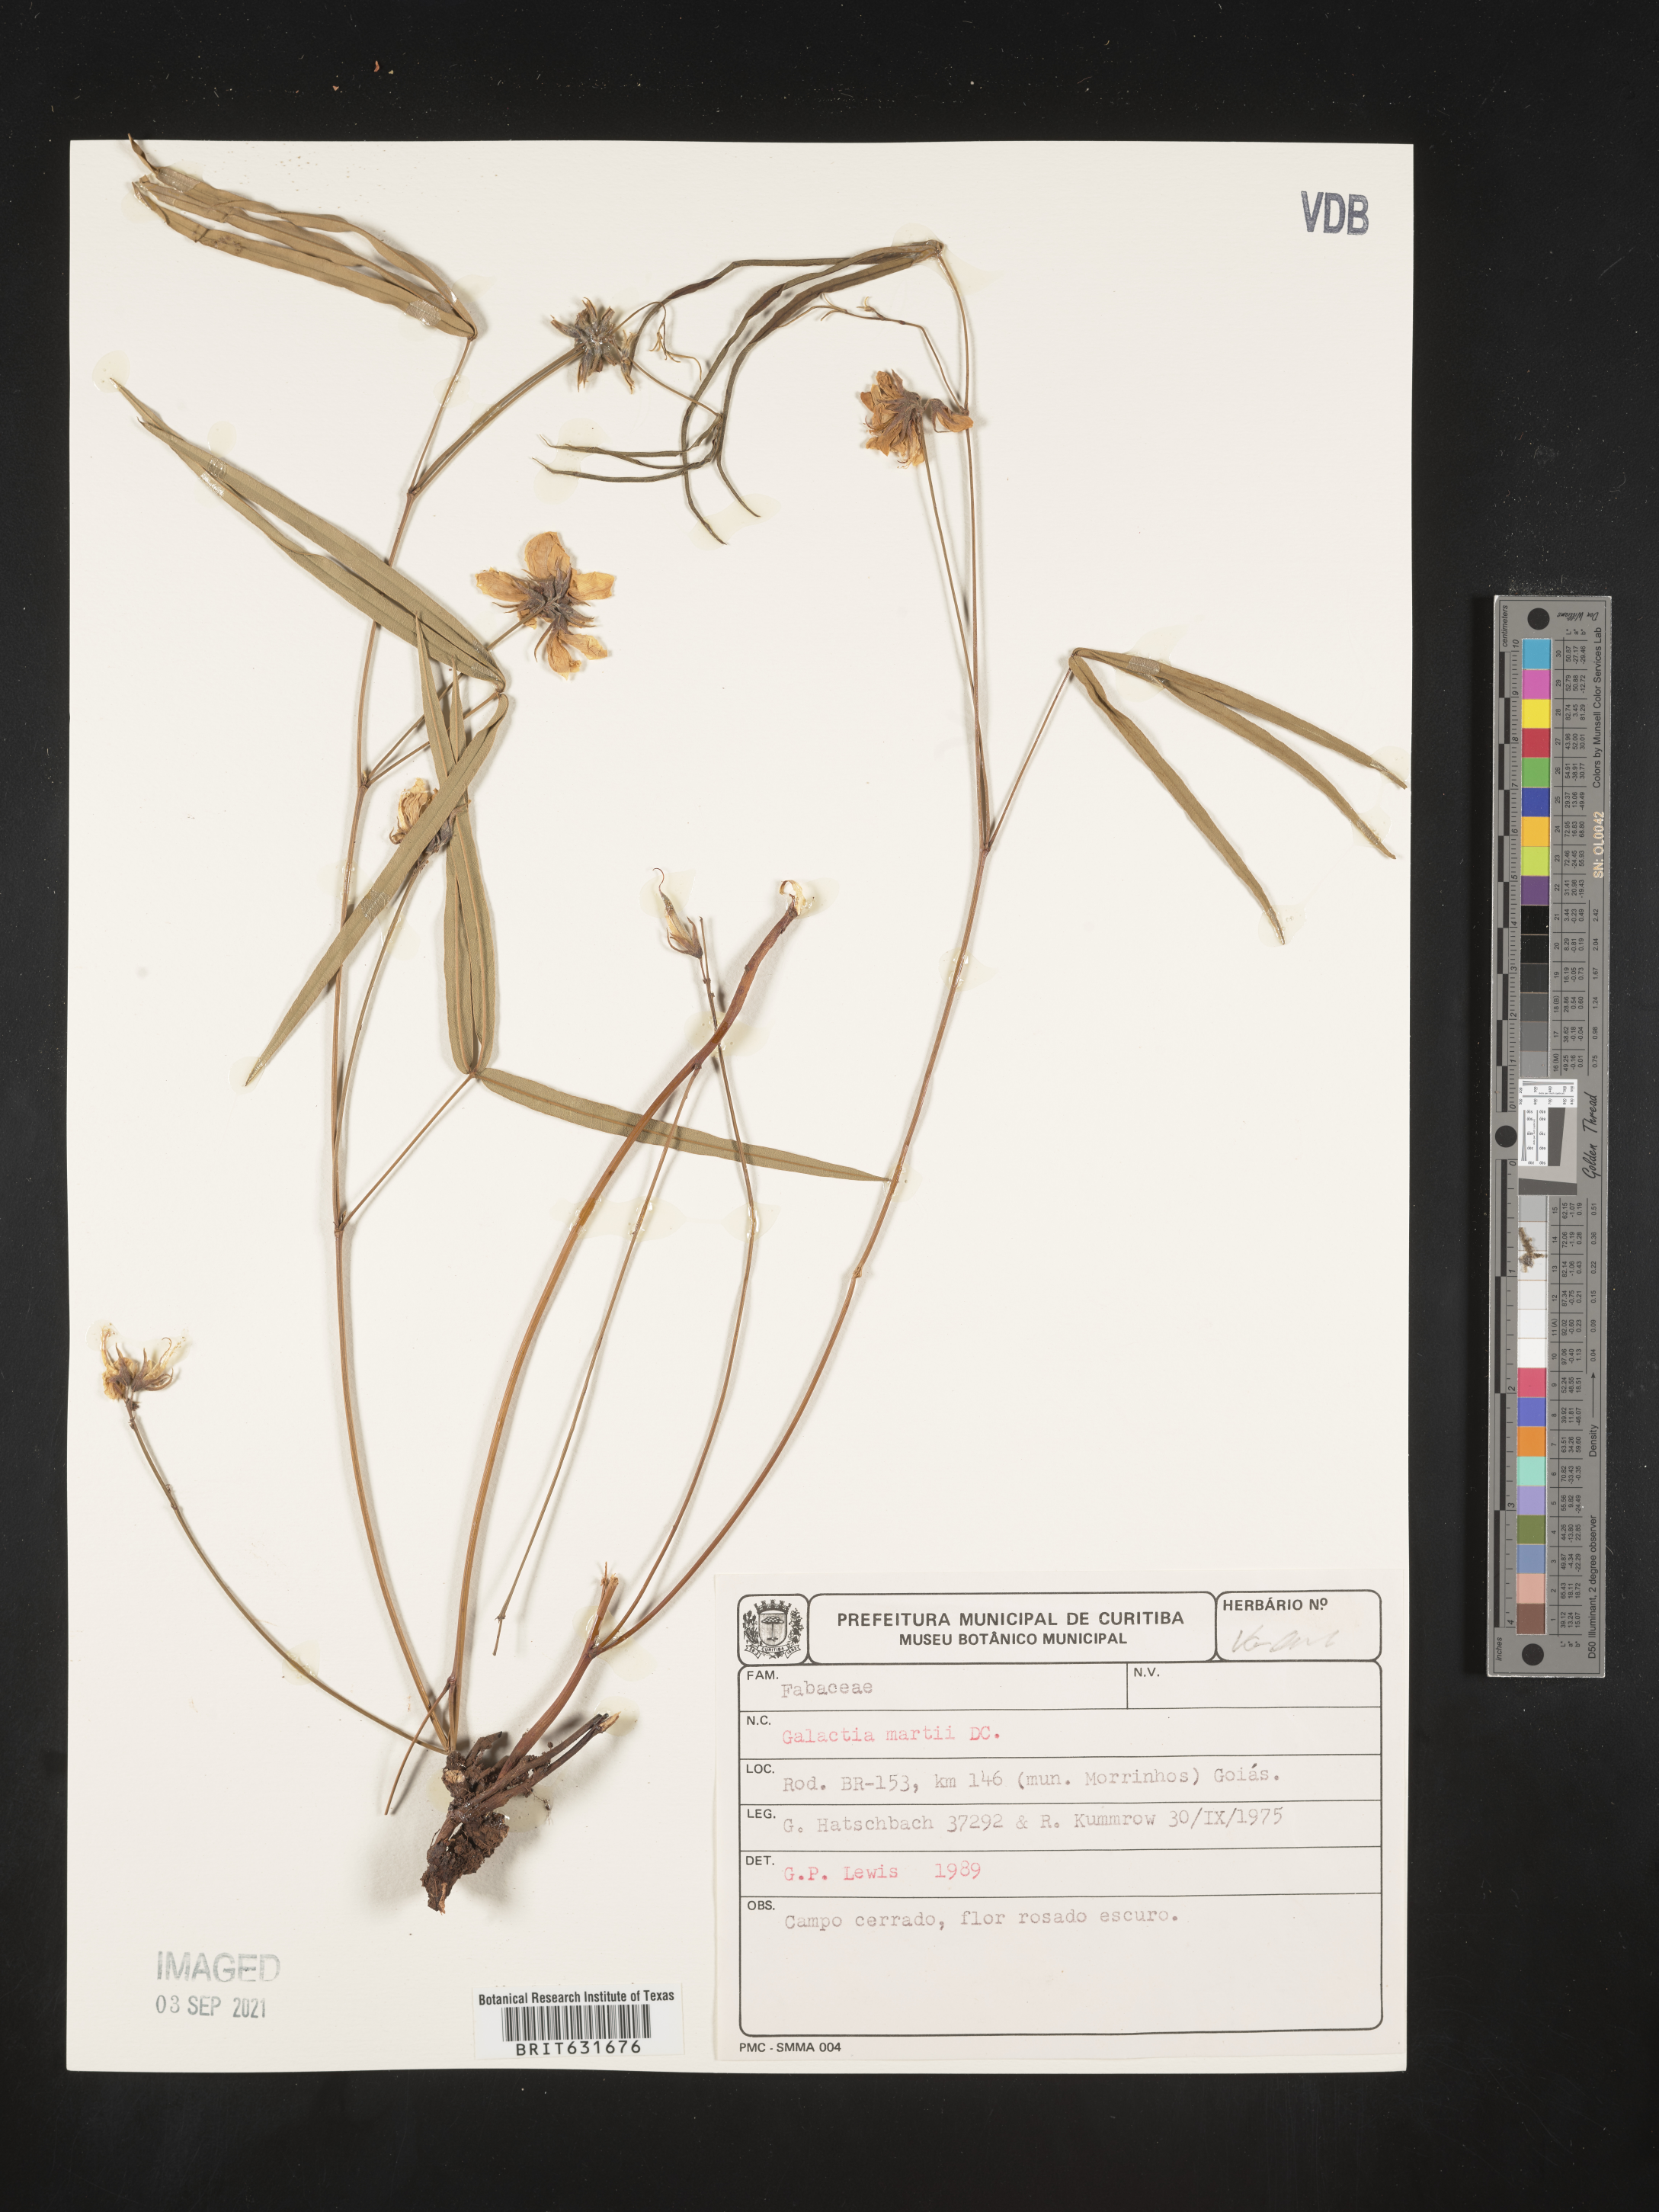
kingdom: Plantae
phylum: Tracheophyta
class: Magnoliopsida
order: Fabales
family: Fabaceae
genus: Galactia
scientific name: Galactia
